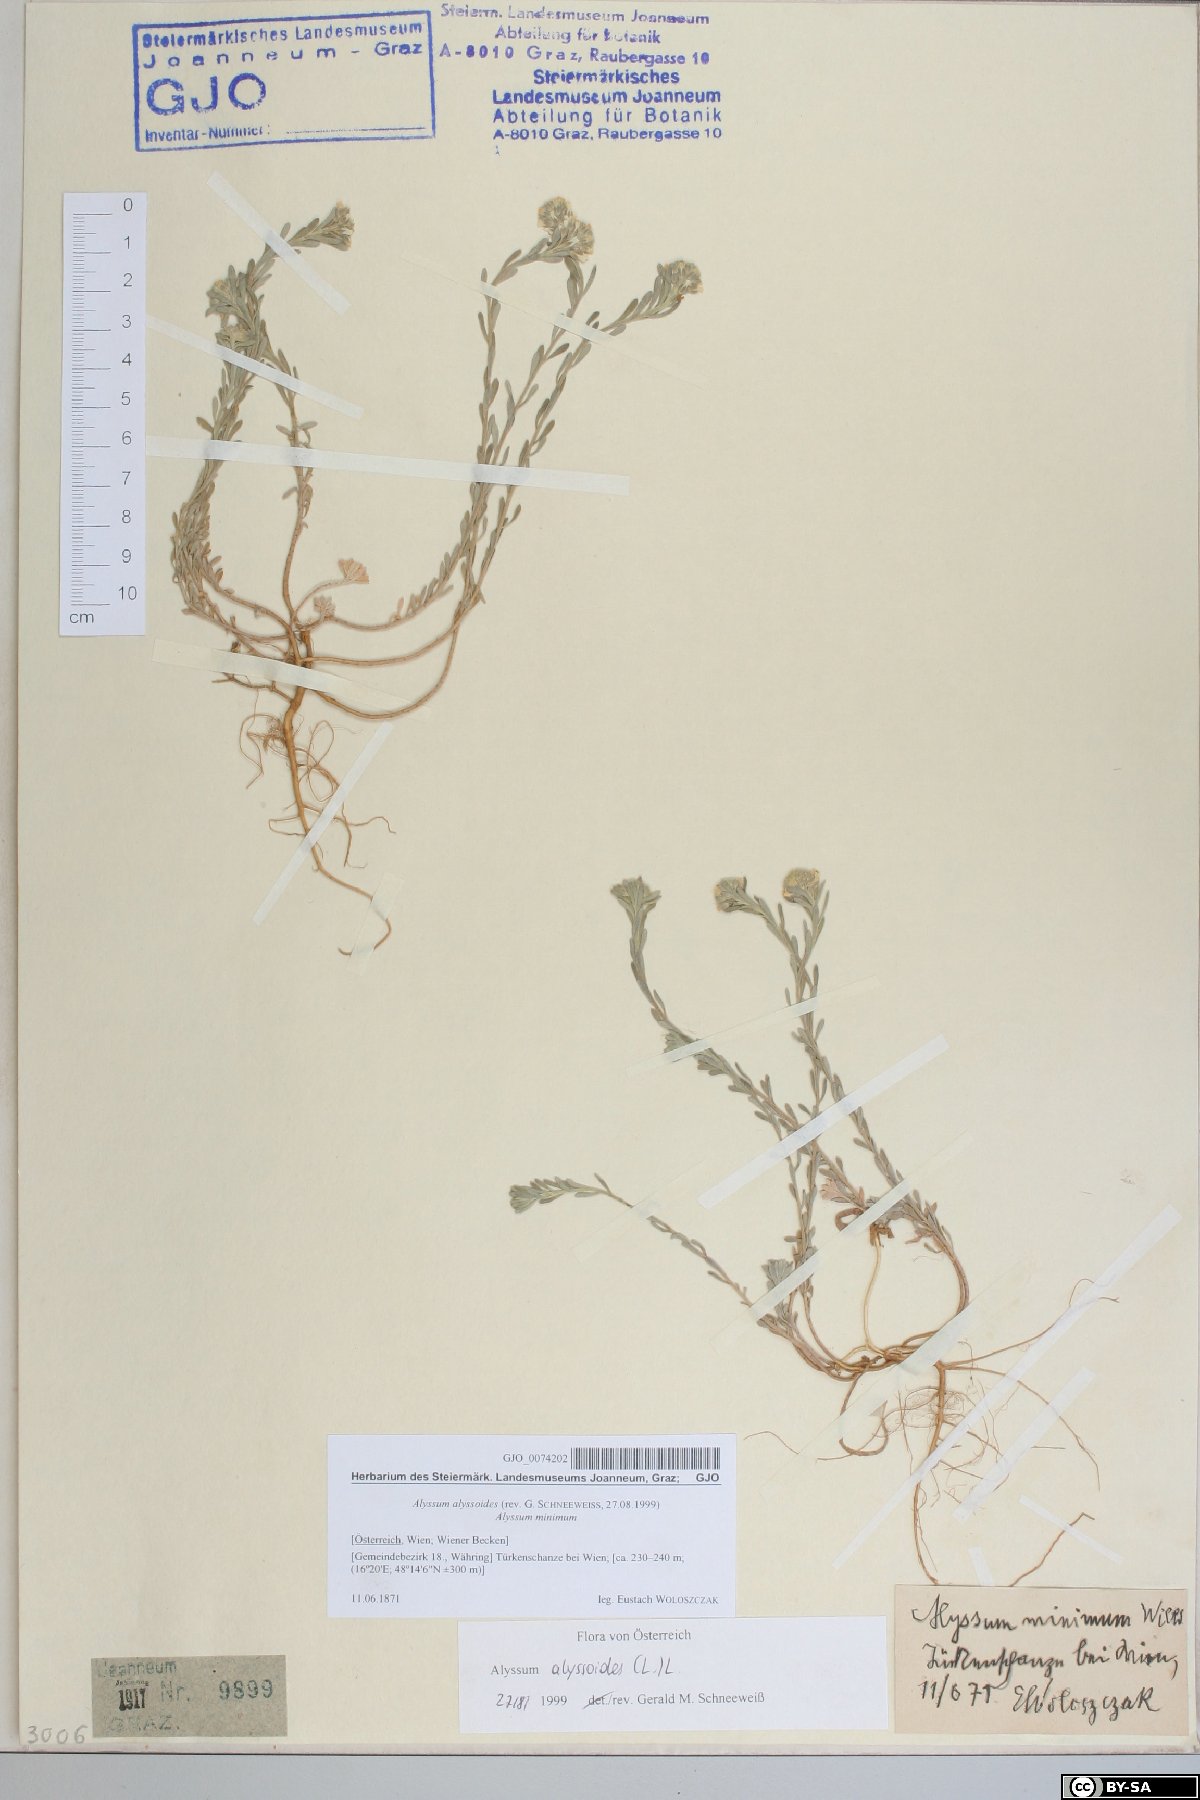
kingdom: Plantae
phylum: Tracheophyta
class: Magnoliopsida
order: Brassicales
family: Brassicaceae
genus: Alyssum
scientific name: Alyssum alyssoides
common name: Small alison
